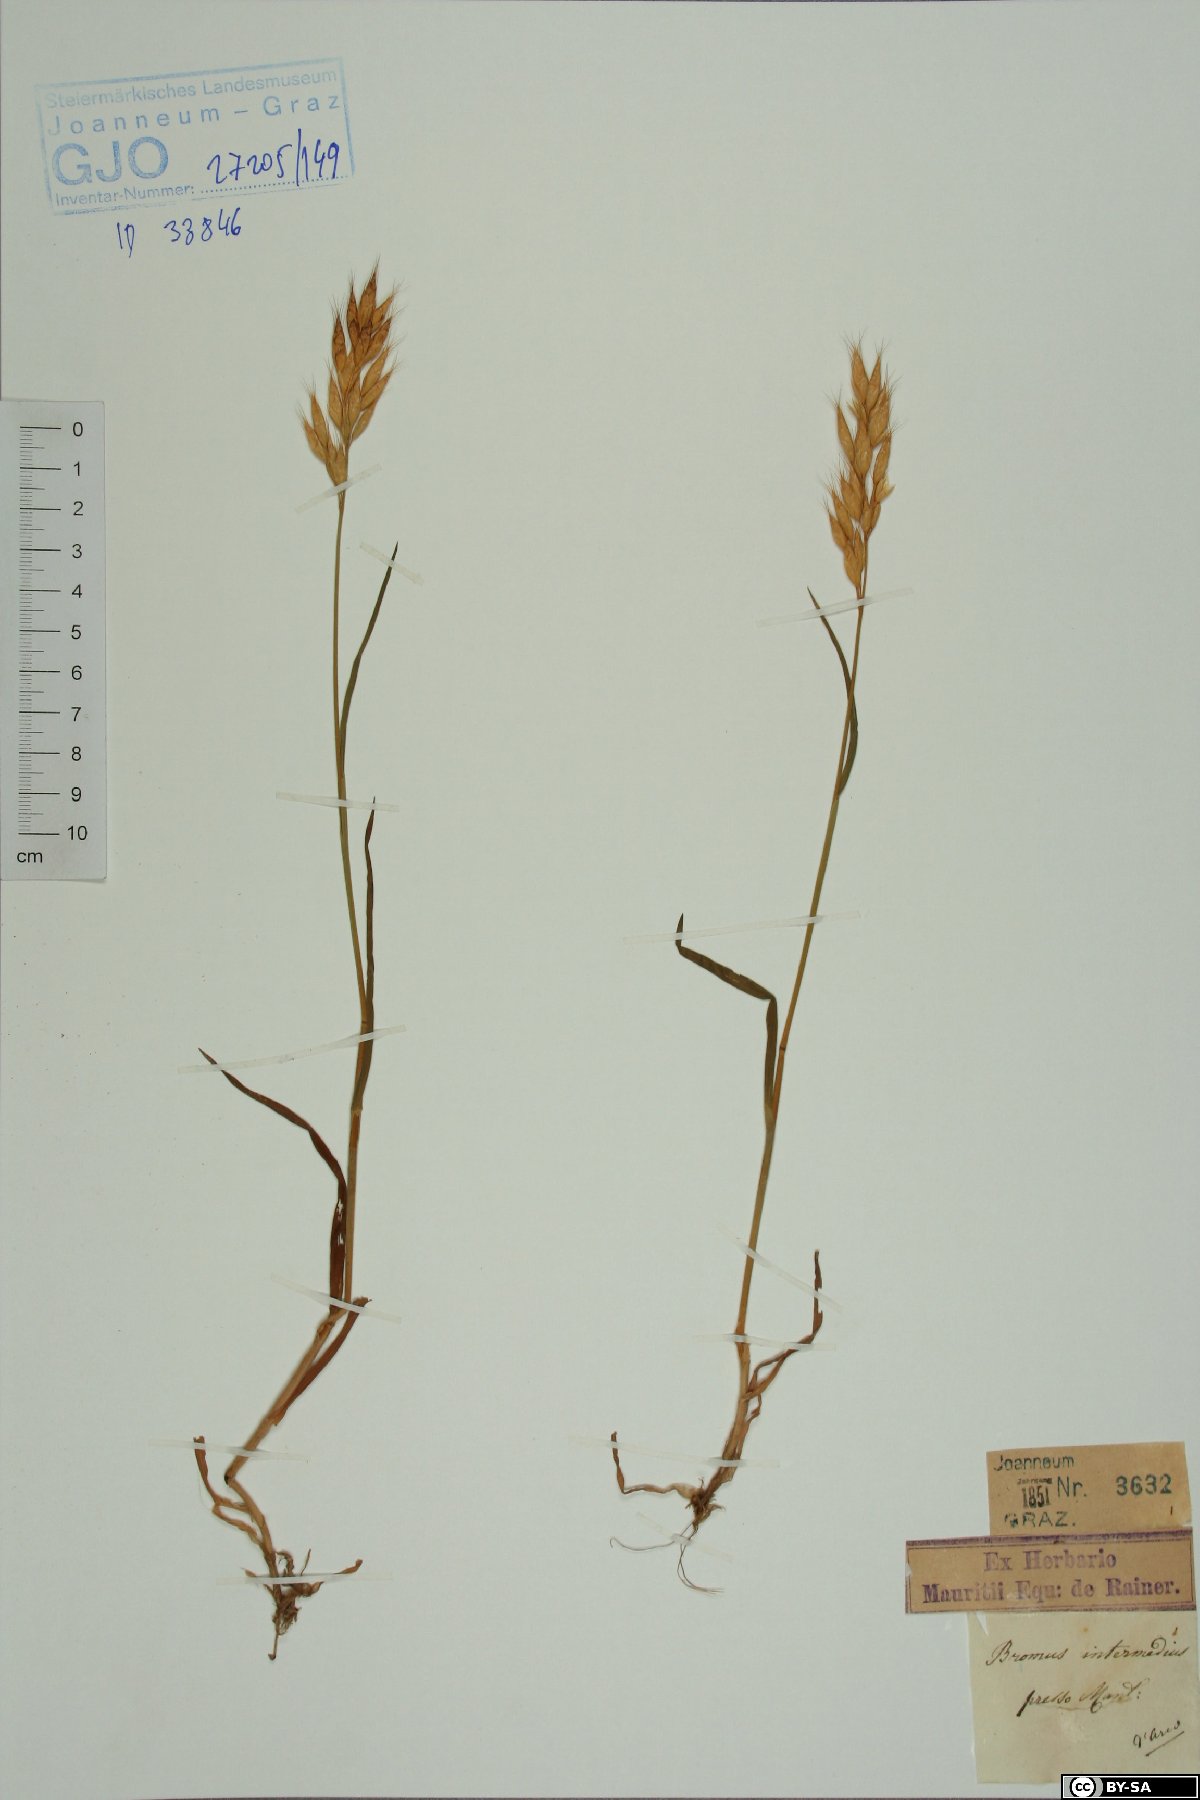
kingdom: Plantae
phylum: Tracheophyta
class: Liliopsida
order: Poales
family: Poaceae
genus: Bromus
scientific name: Bromus intermedius
